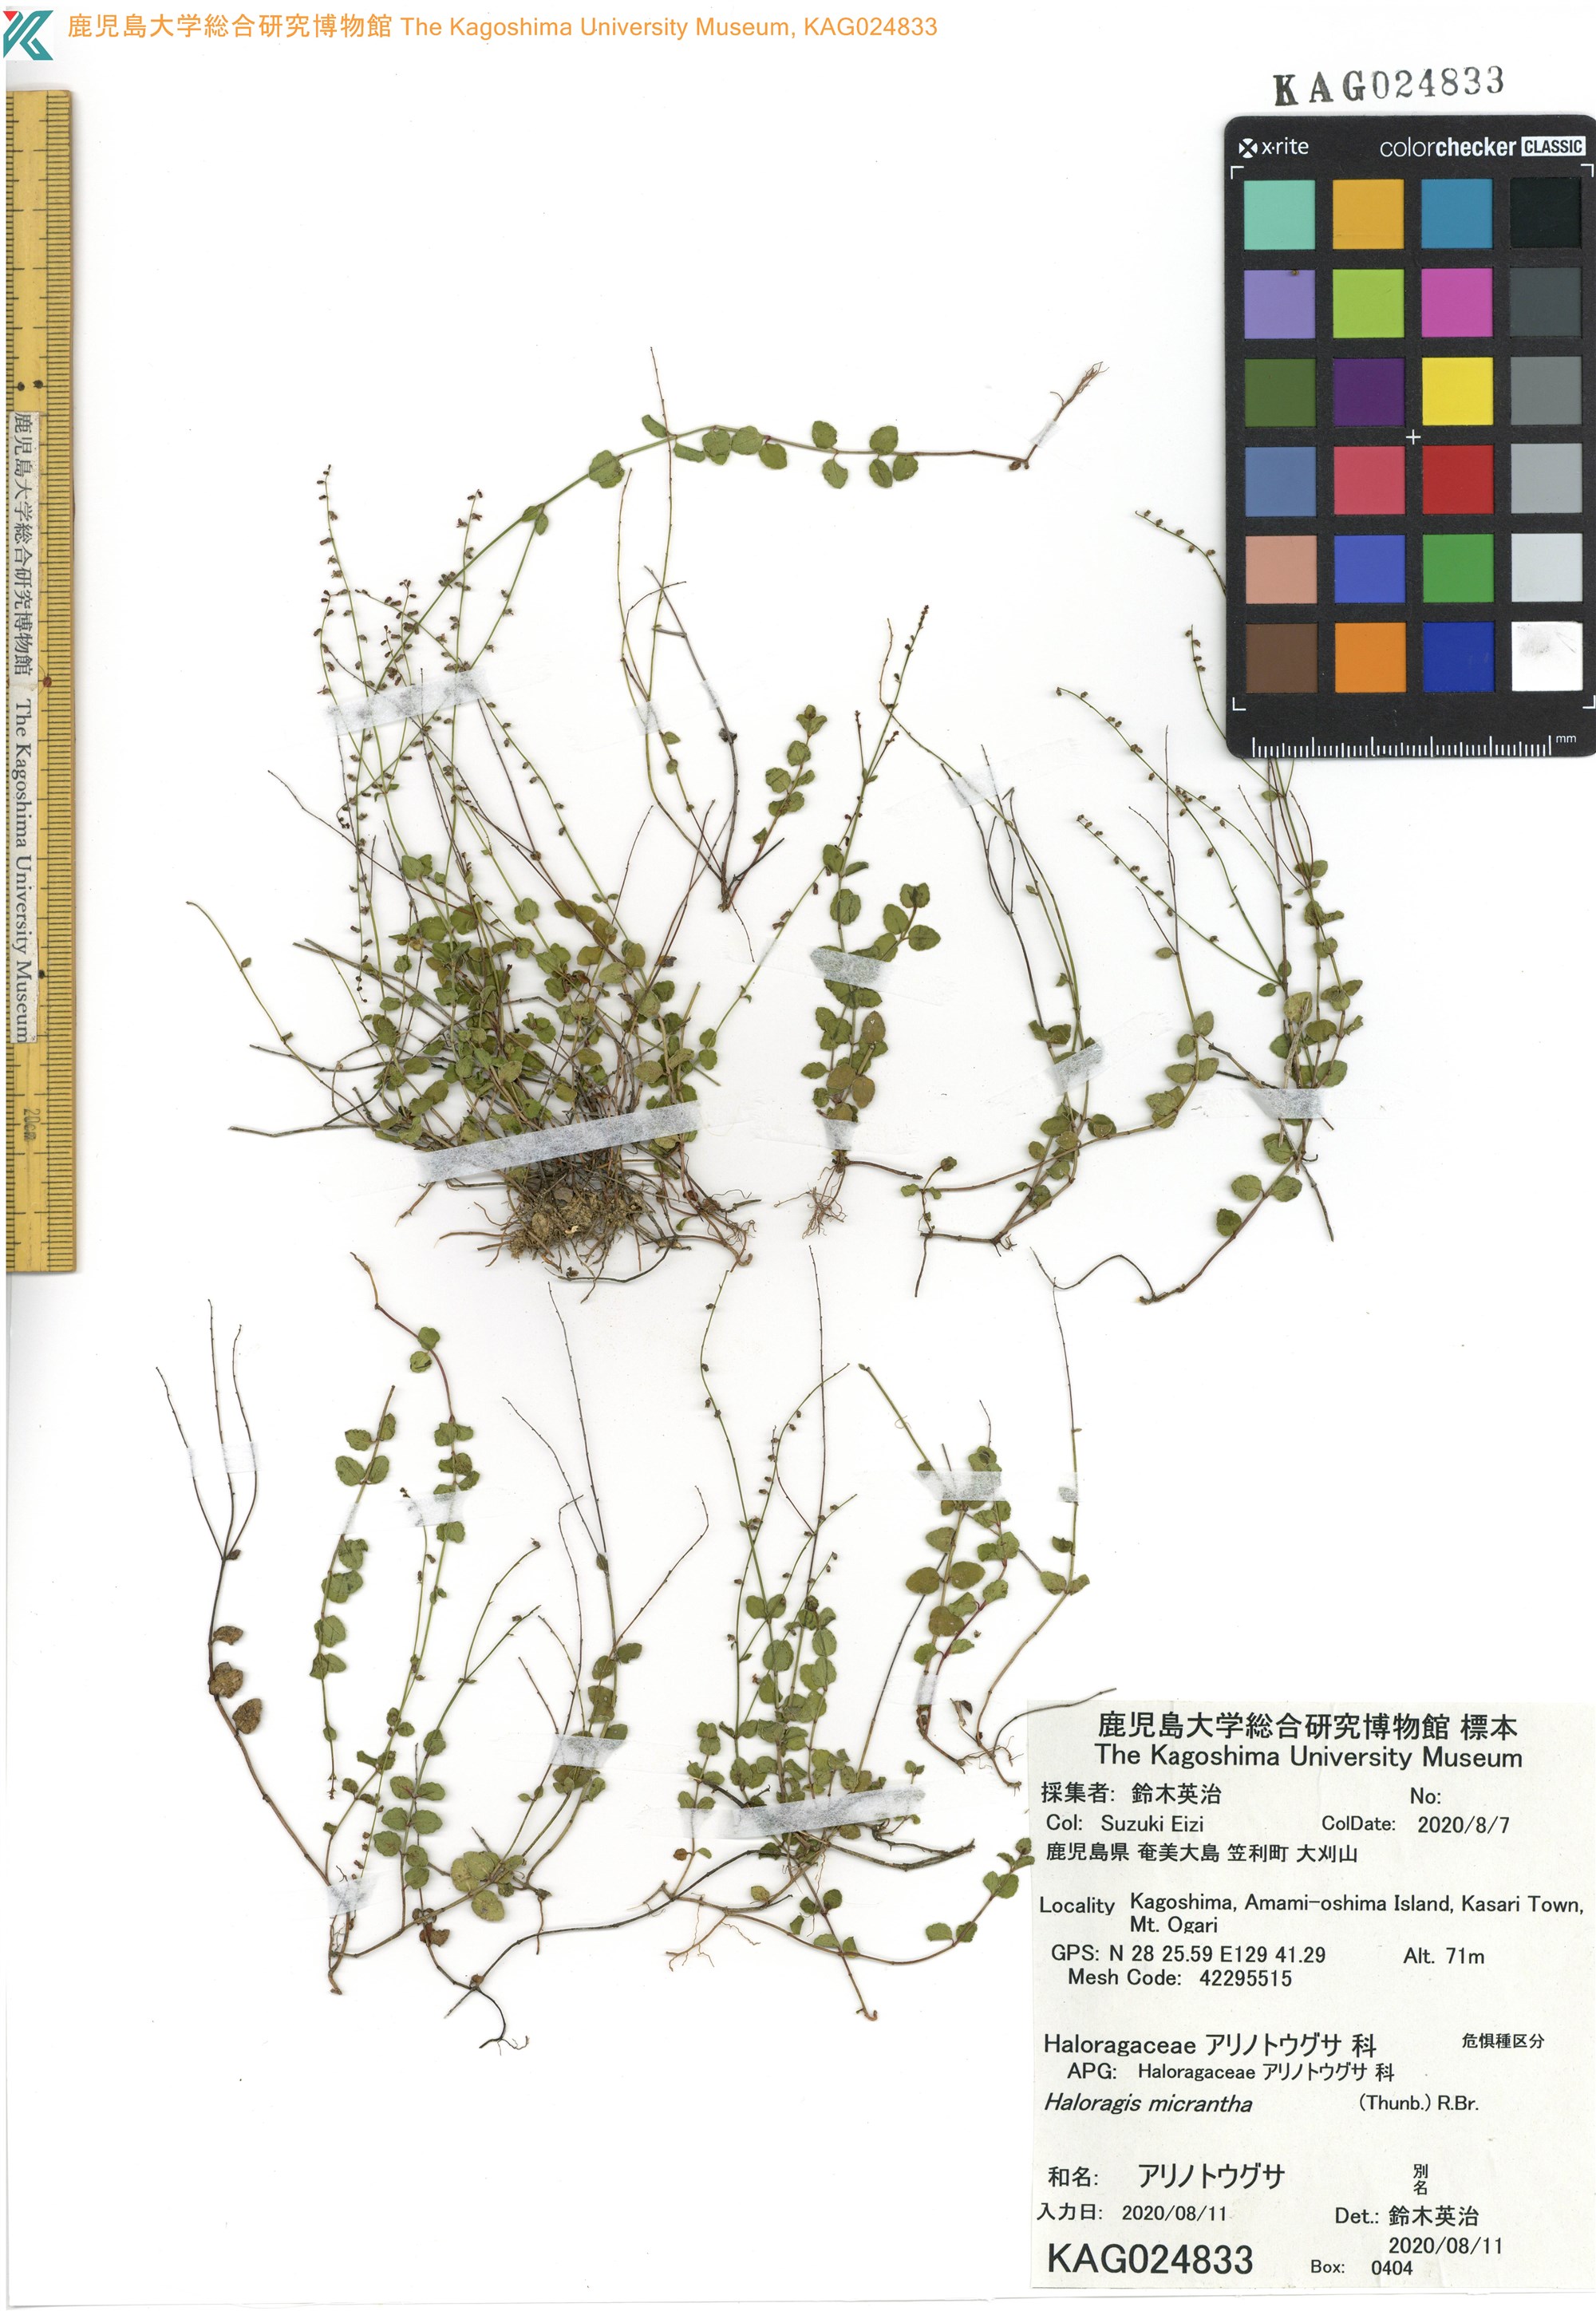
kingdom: Plantae
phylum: Tracheophyta
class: Magnoliopsida
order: Saxifragales
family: Haloragaceae
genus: Haloragis
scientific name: Haloragis micrantha
